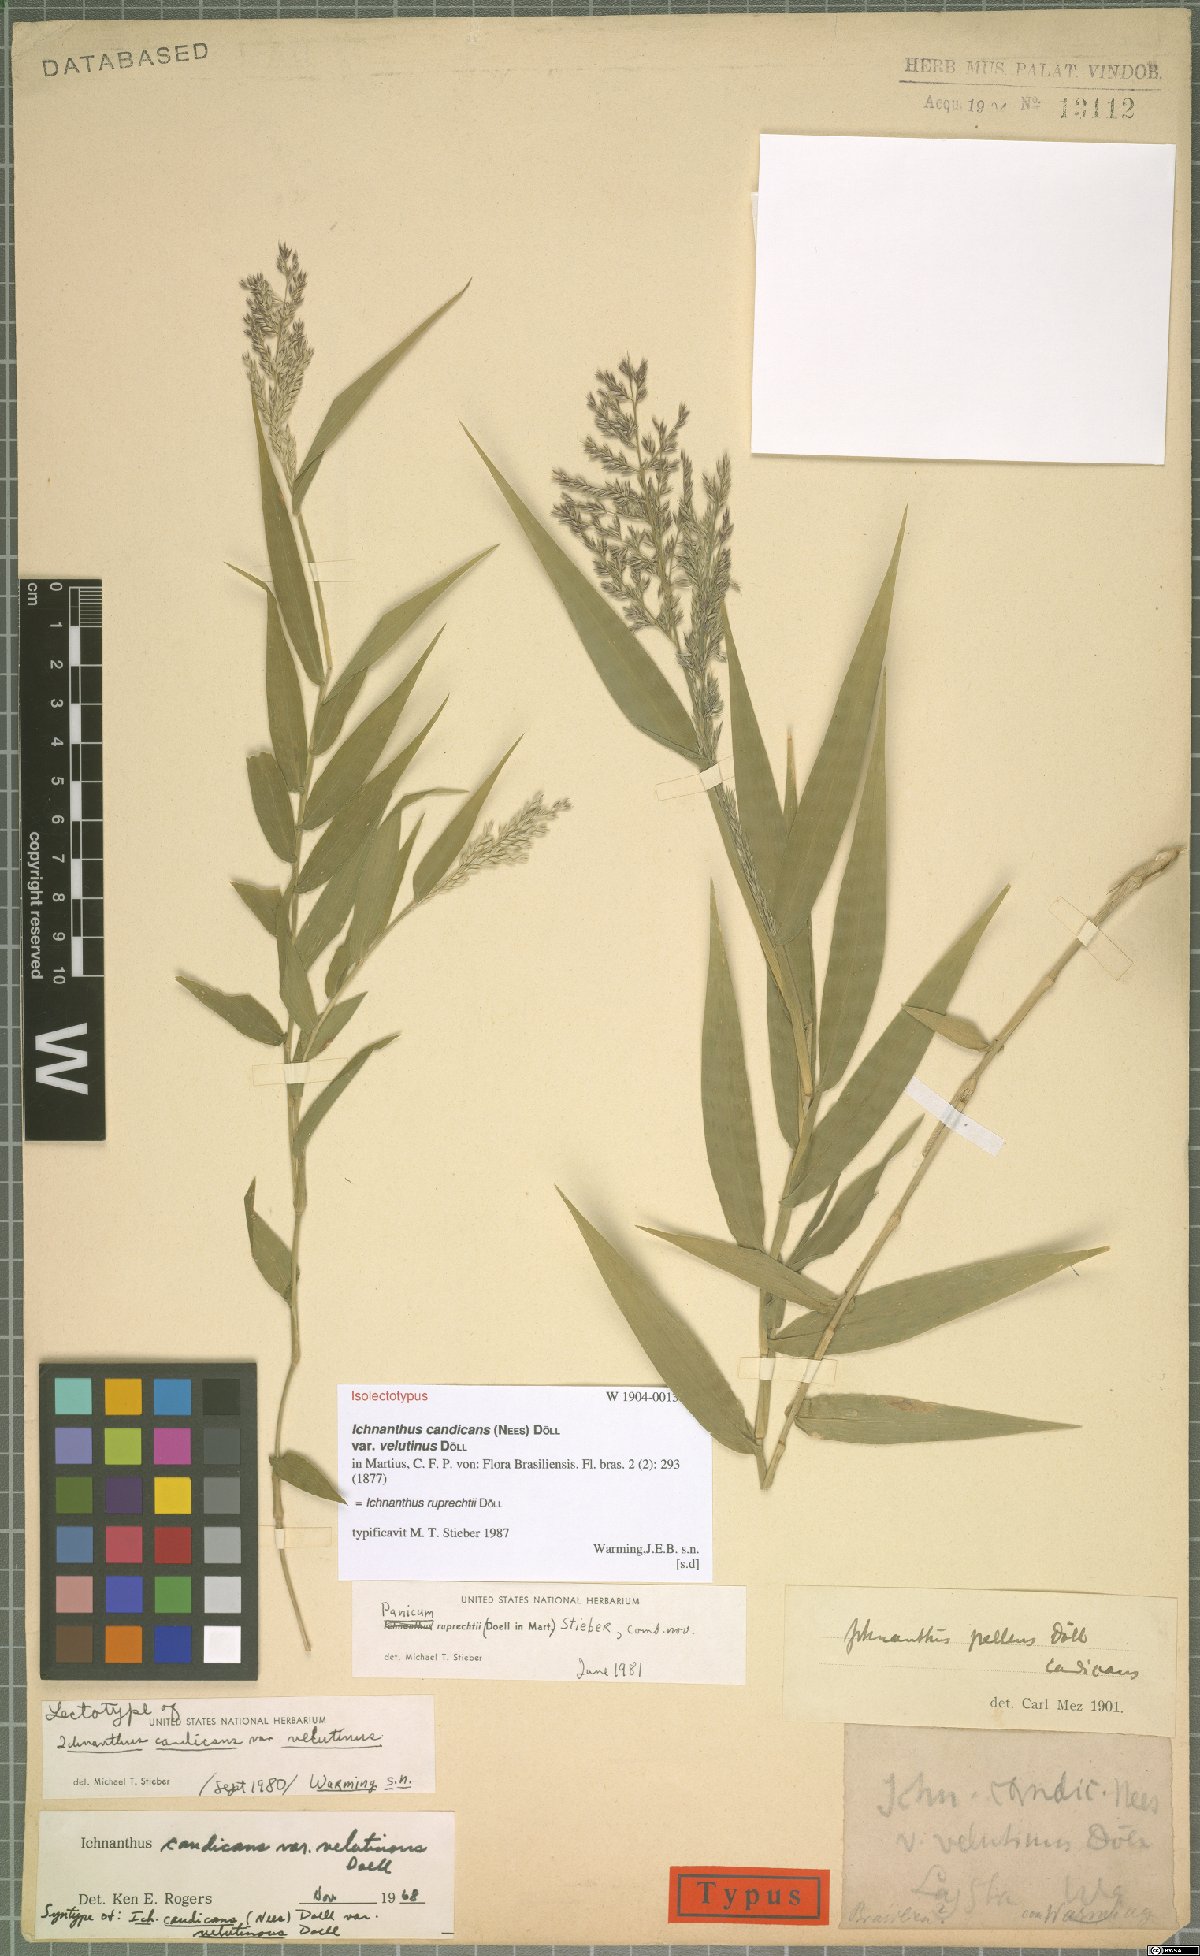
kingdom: Plantae
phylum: Tracheophyta
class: Liliopsida
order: Poales
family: Poaceae
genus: Ichnanthus
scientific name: Ichnanthus ruprechtii
